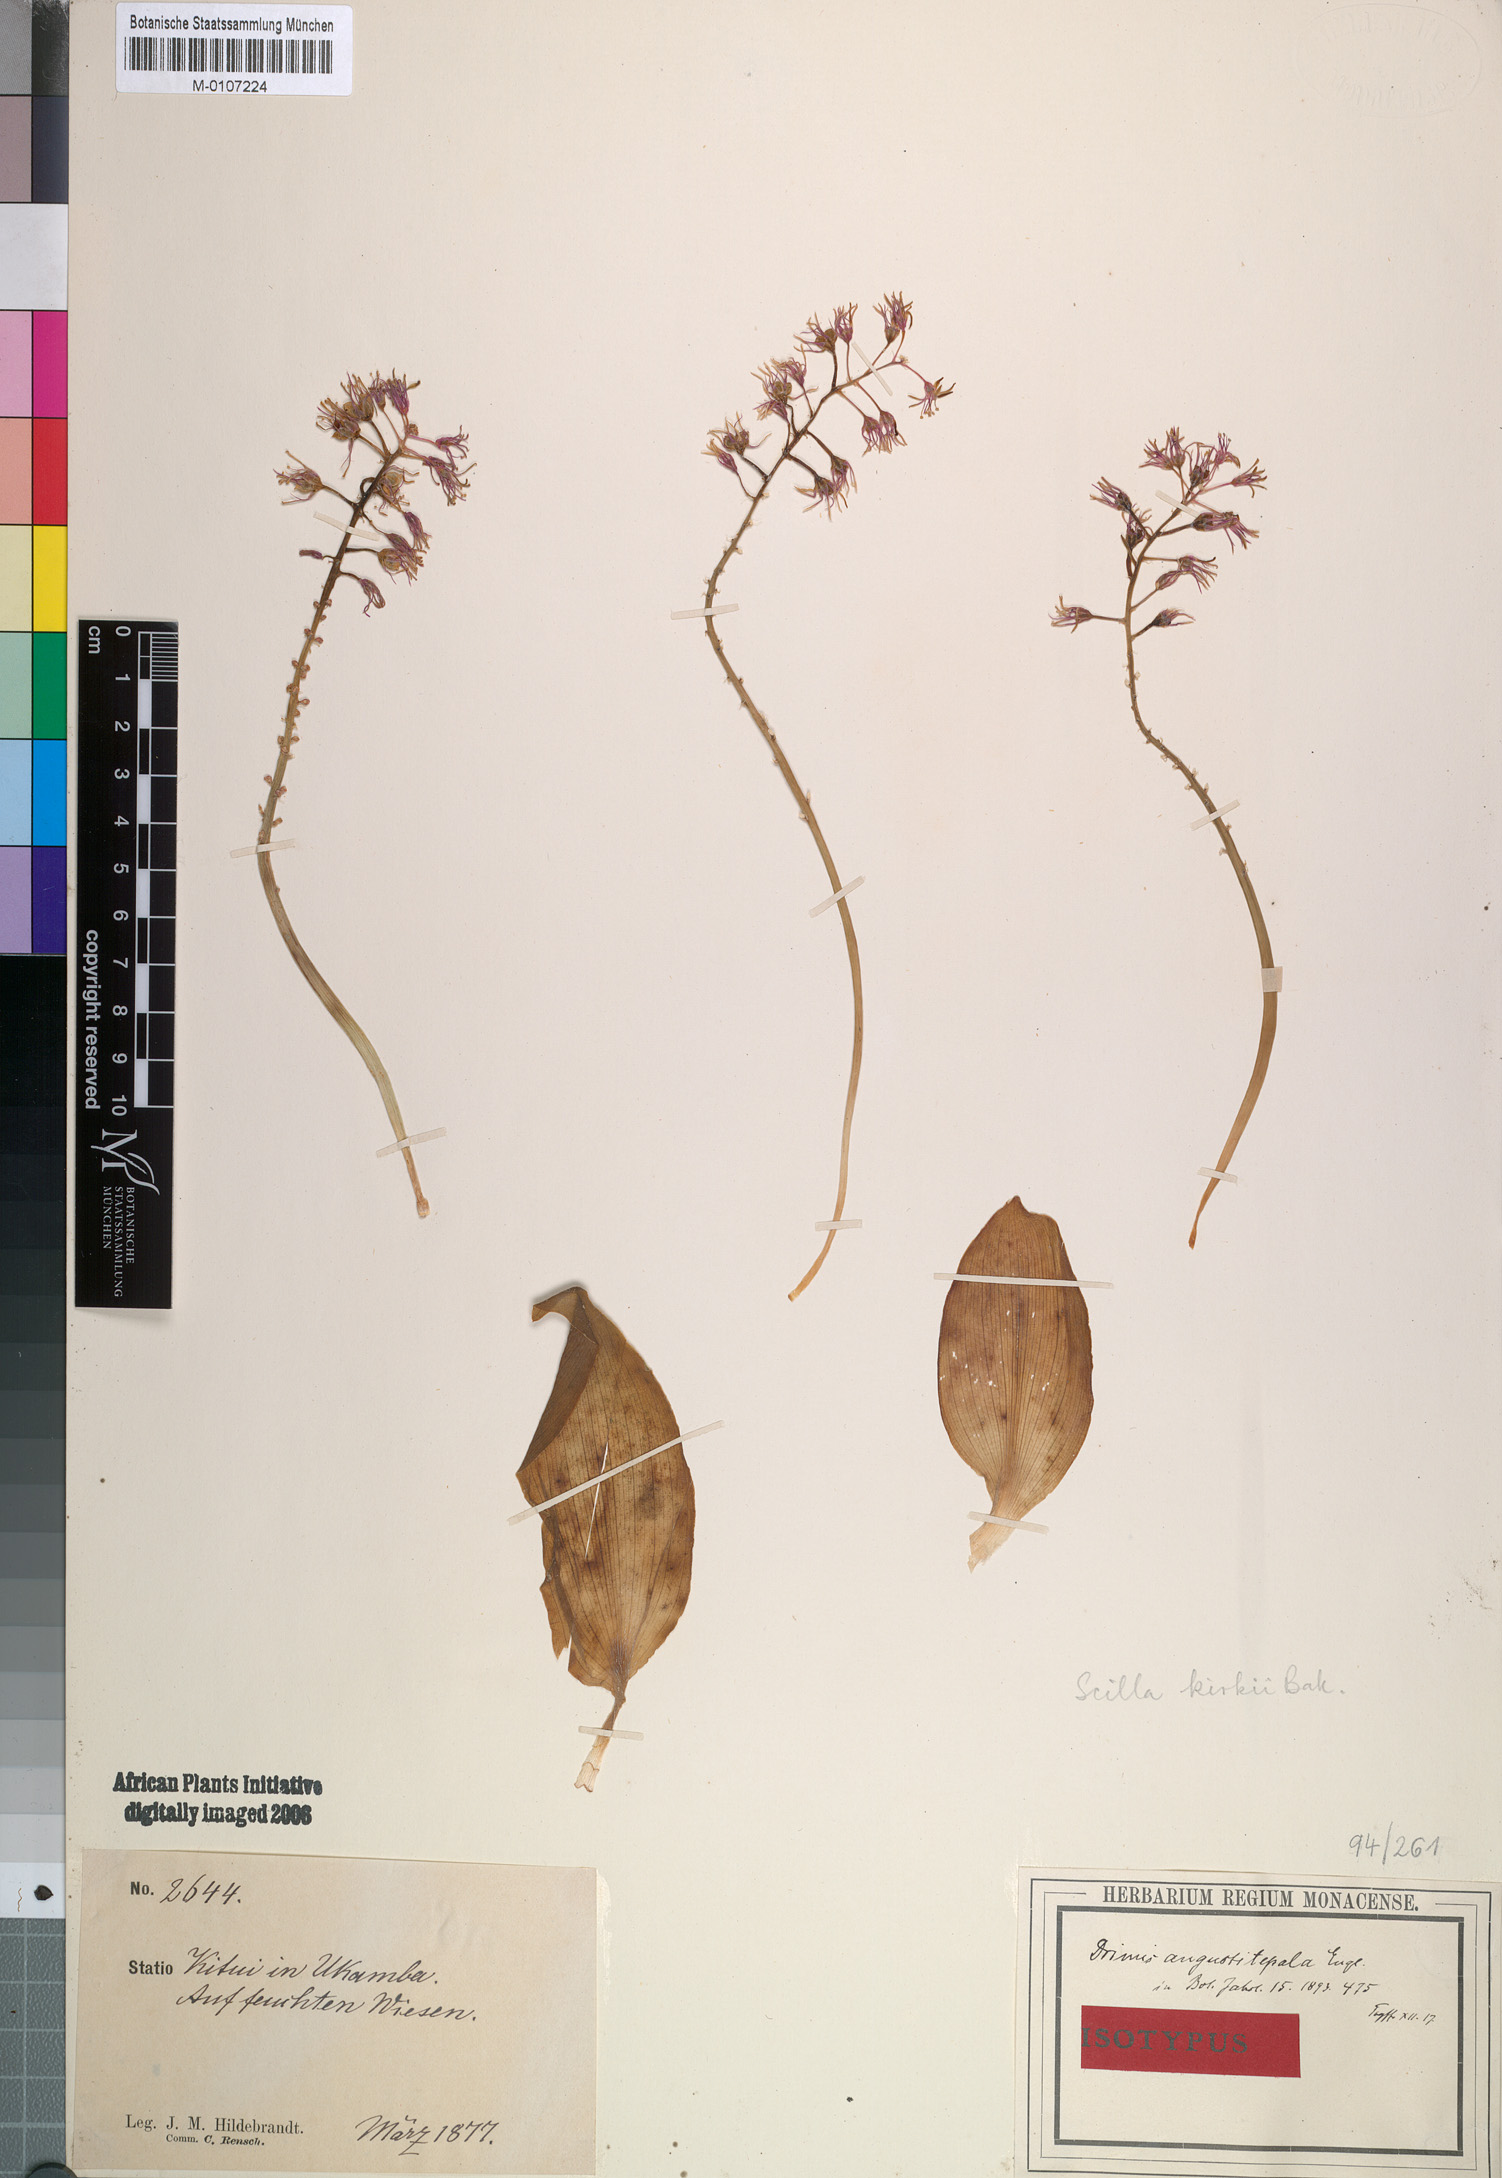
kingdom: Plantae
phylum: Tracheophyta
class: Liliopsida
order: Asparagales
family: Asparagaceae
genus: Ledebouria
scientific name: Ledebouria kirkii
